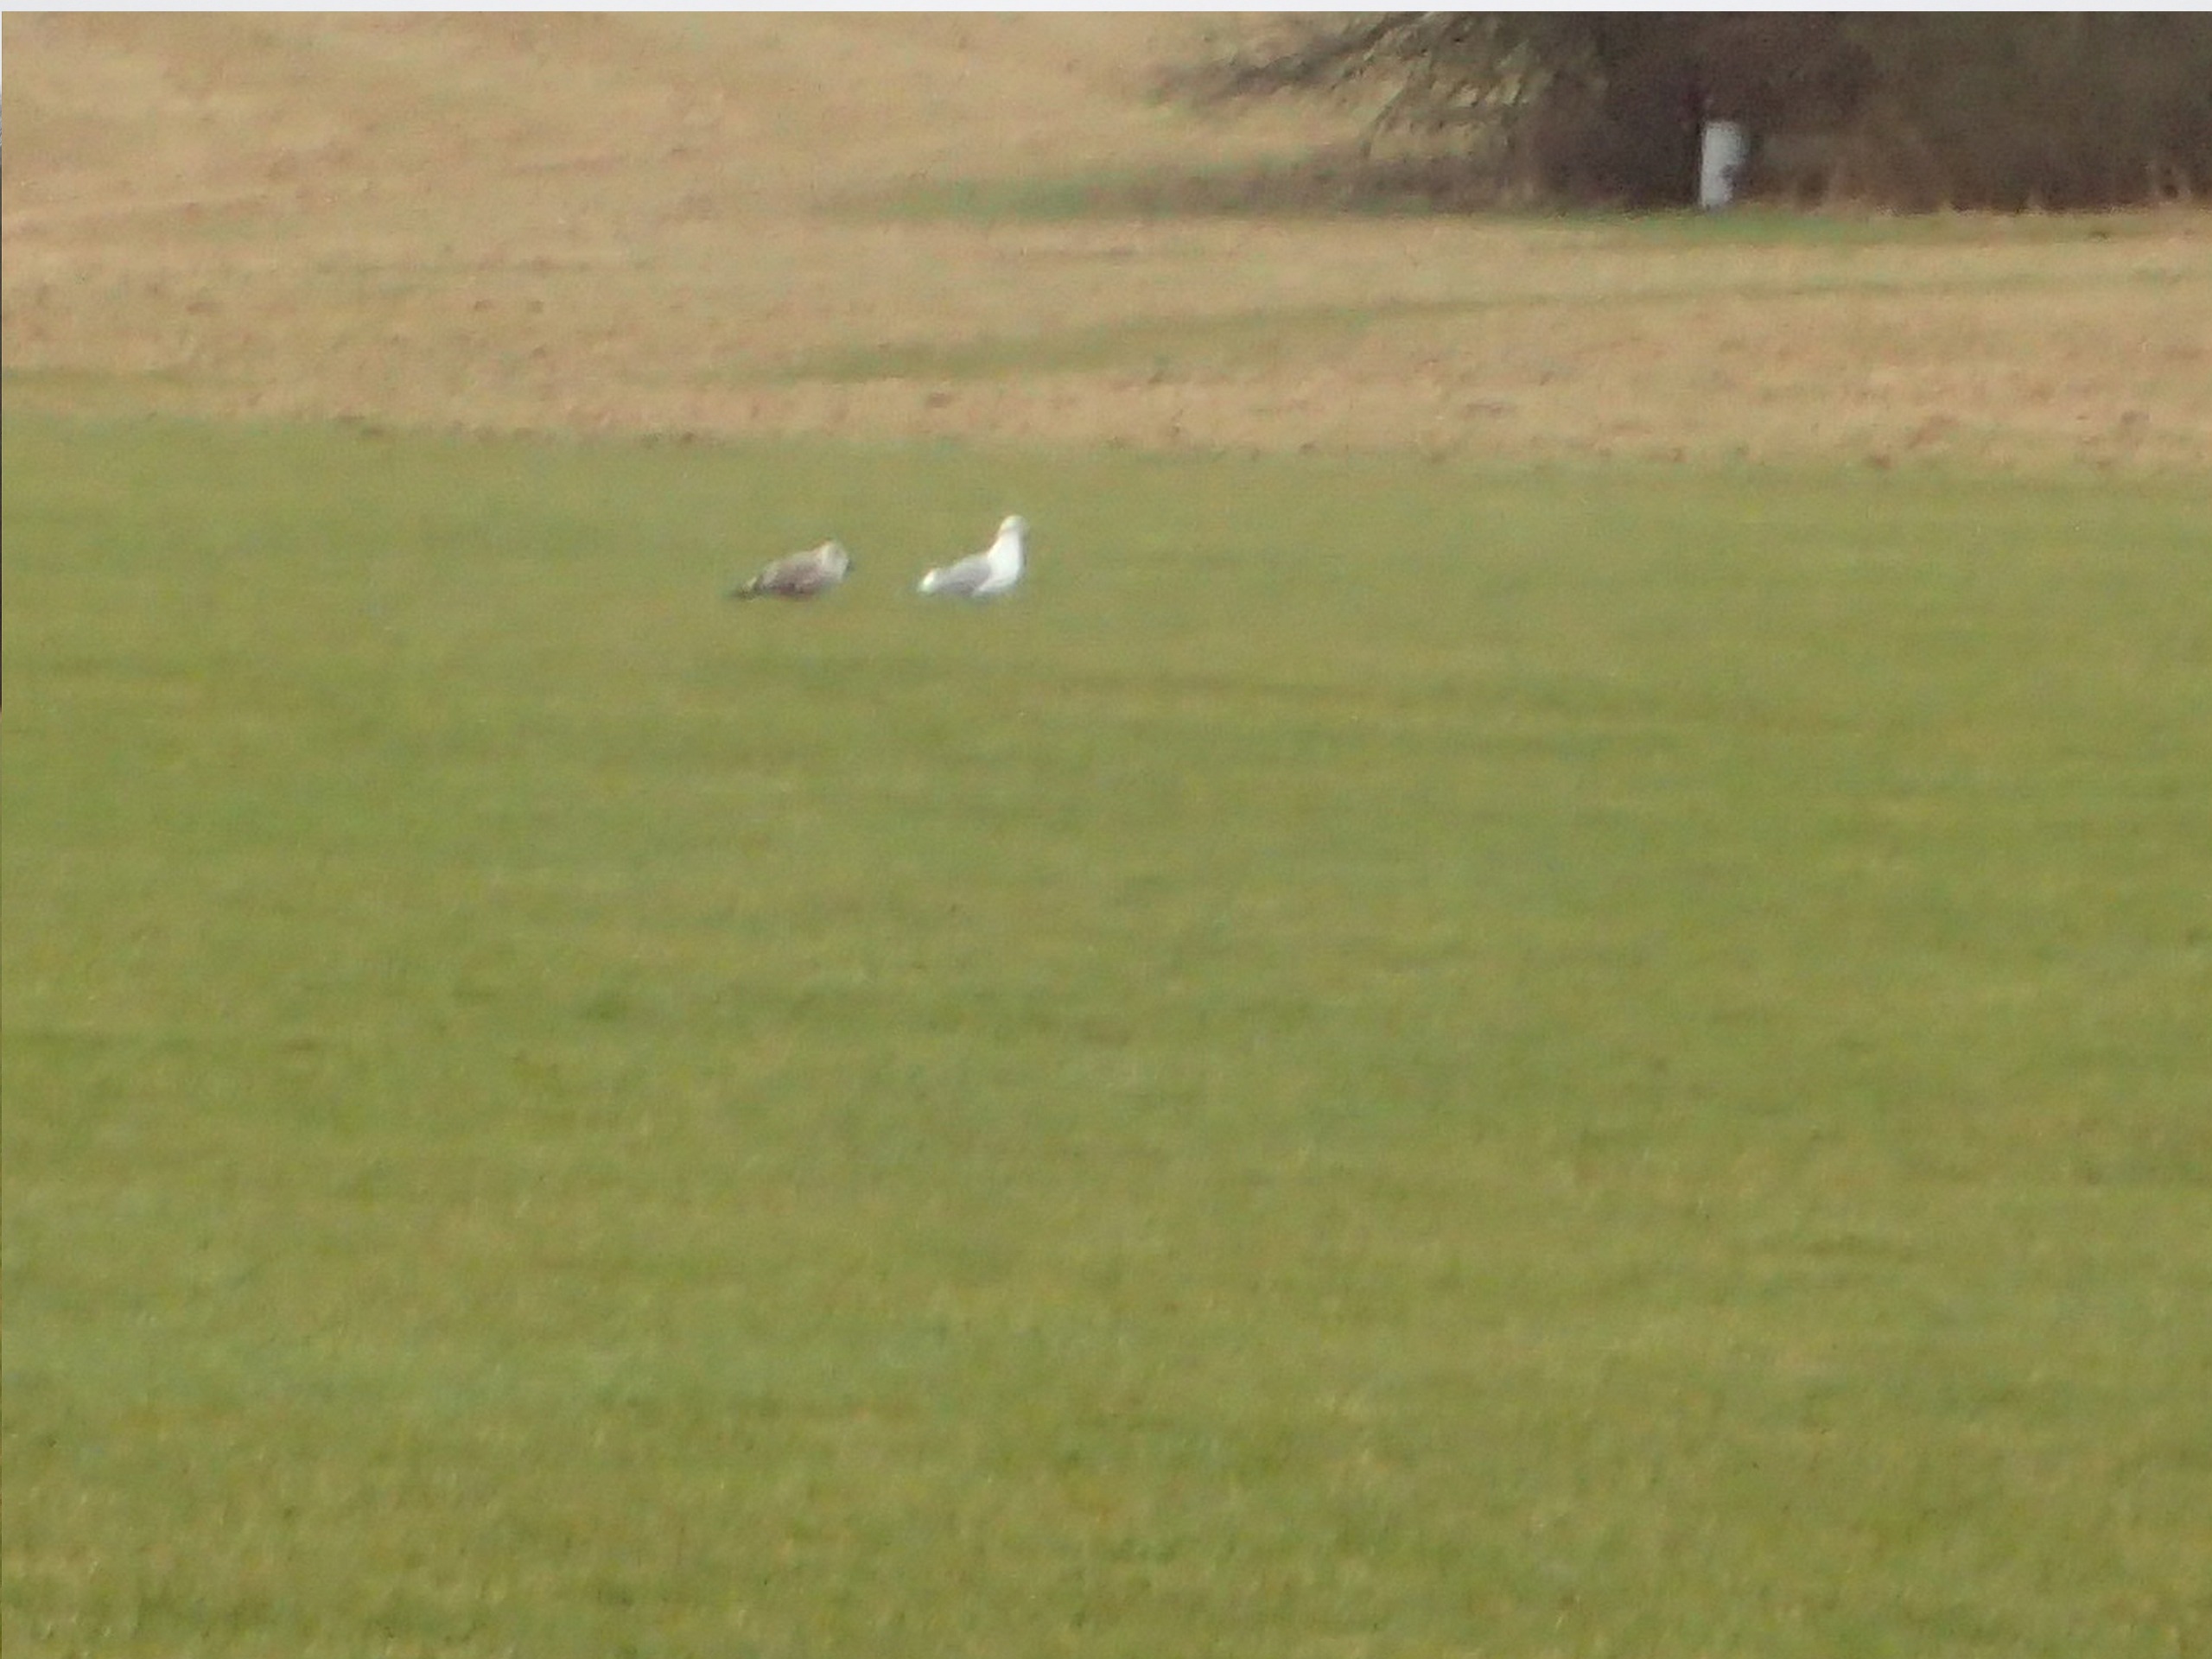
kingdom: Animalia
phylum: Chordata
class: Aves
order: Charadriiformes
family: Laridae
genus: Larus
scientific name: Larus argentatus
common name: Sølvmåge
